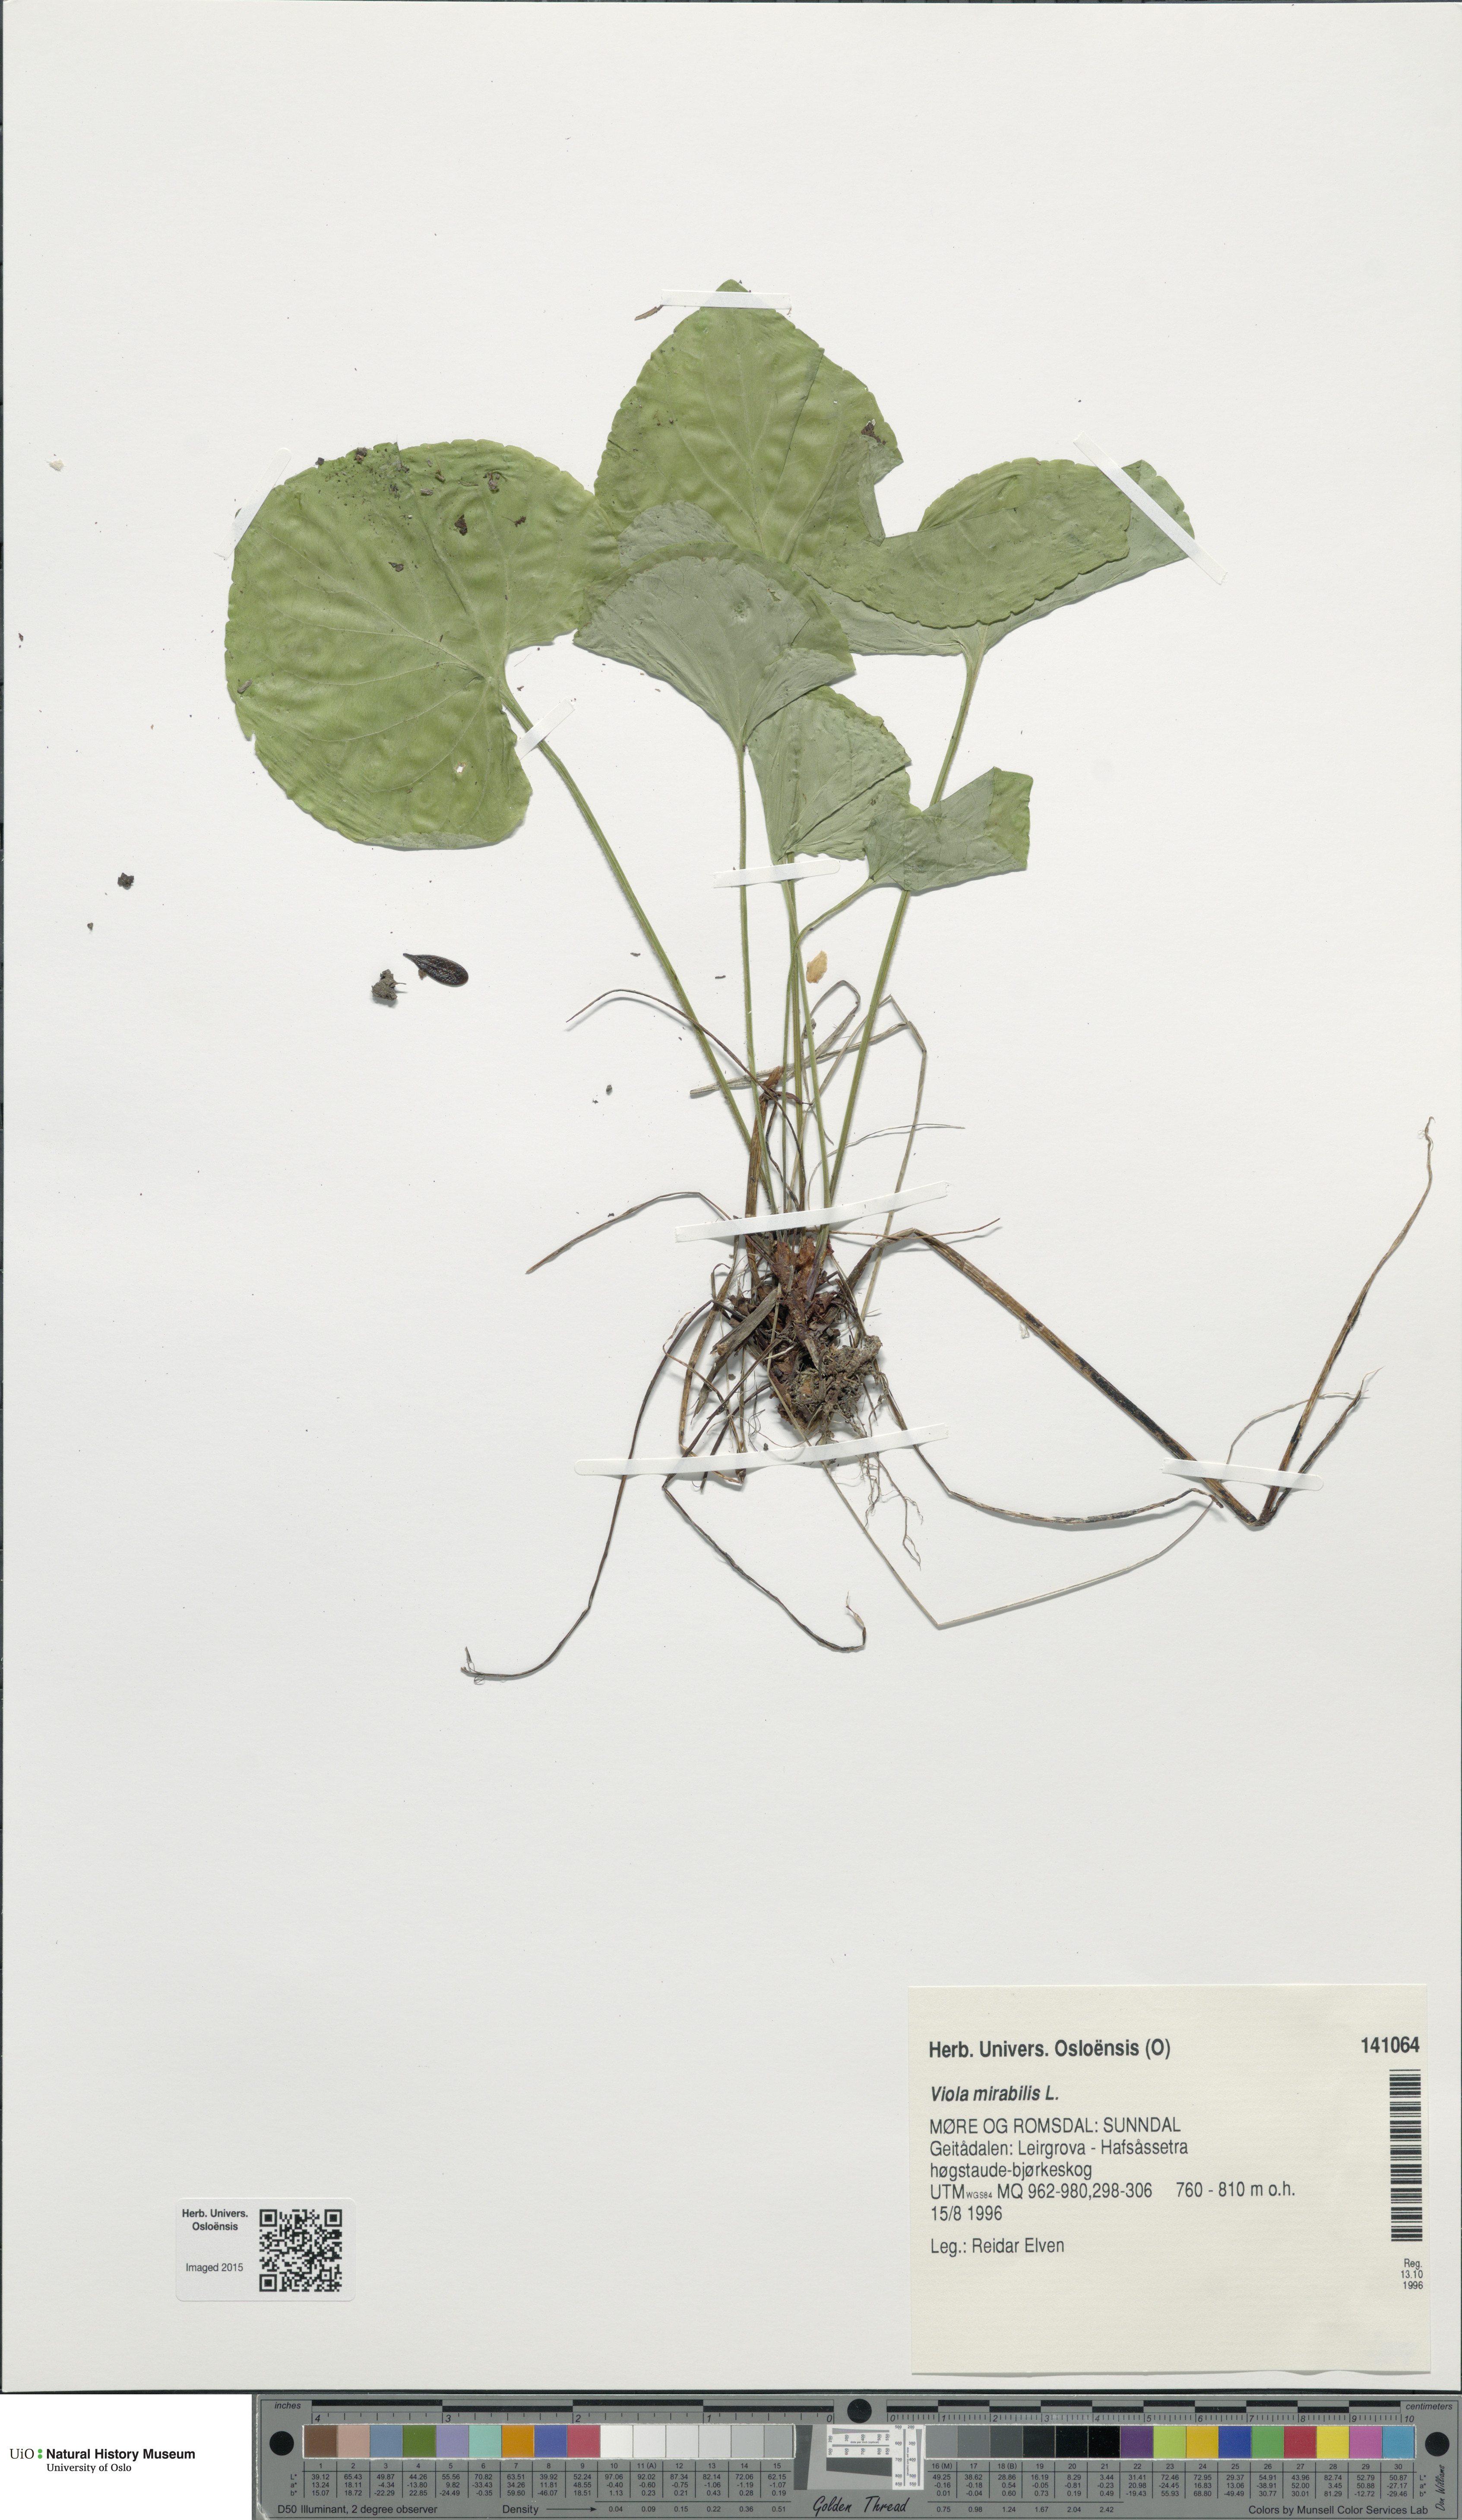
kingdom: Plantae
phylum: Tracheophyta
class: Magnoliopsida
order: Malpighiales
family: Violaceae
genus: Viola
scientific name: Viola mirabilis
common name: Wonder violet
